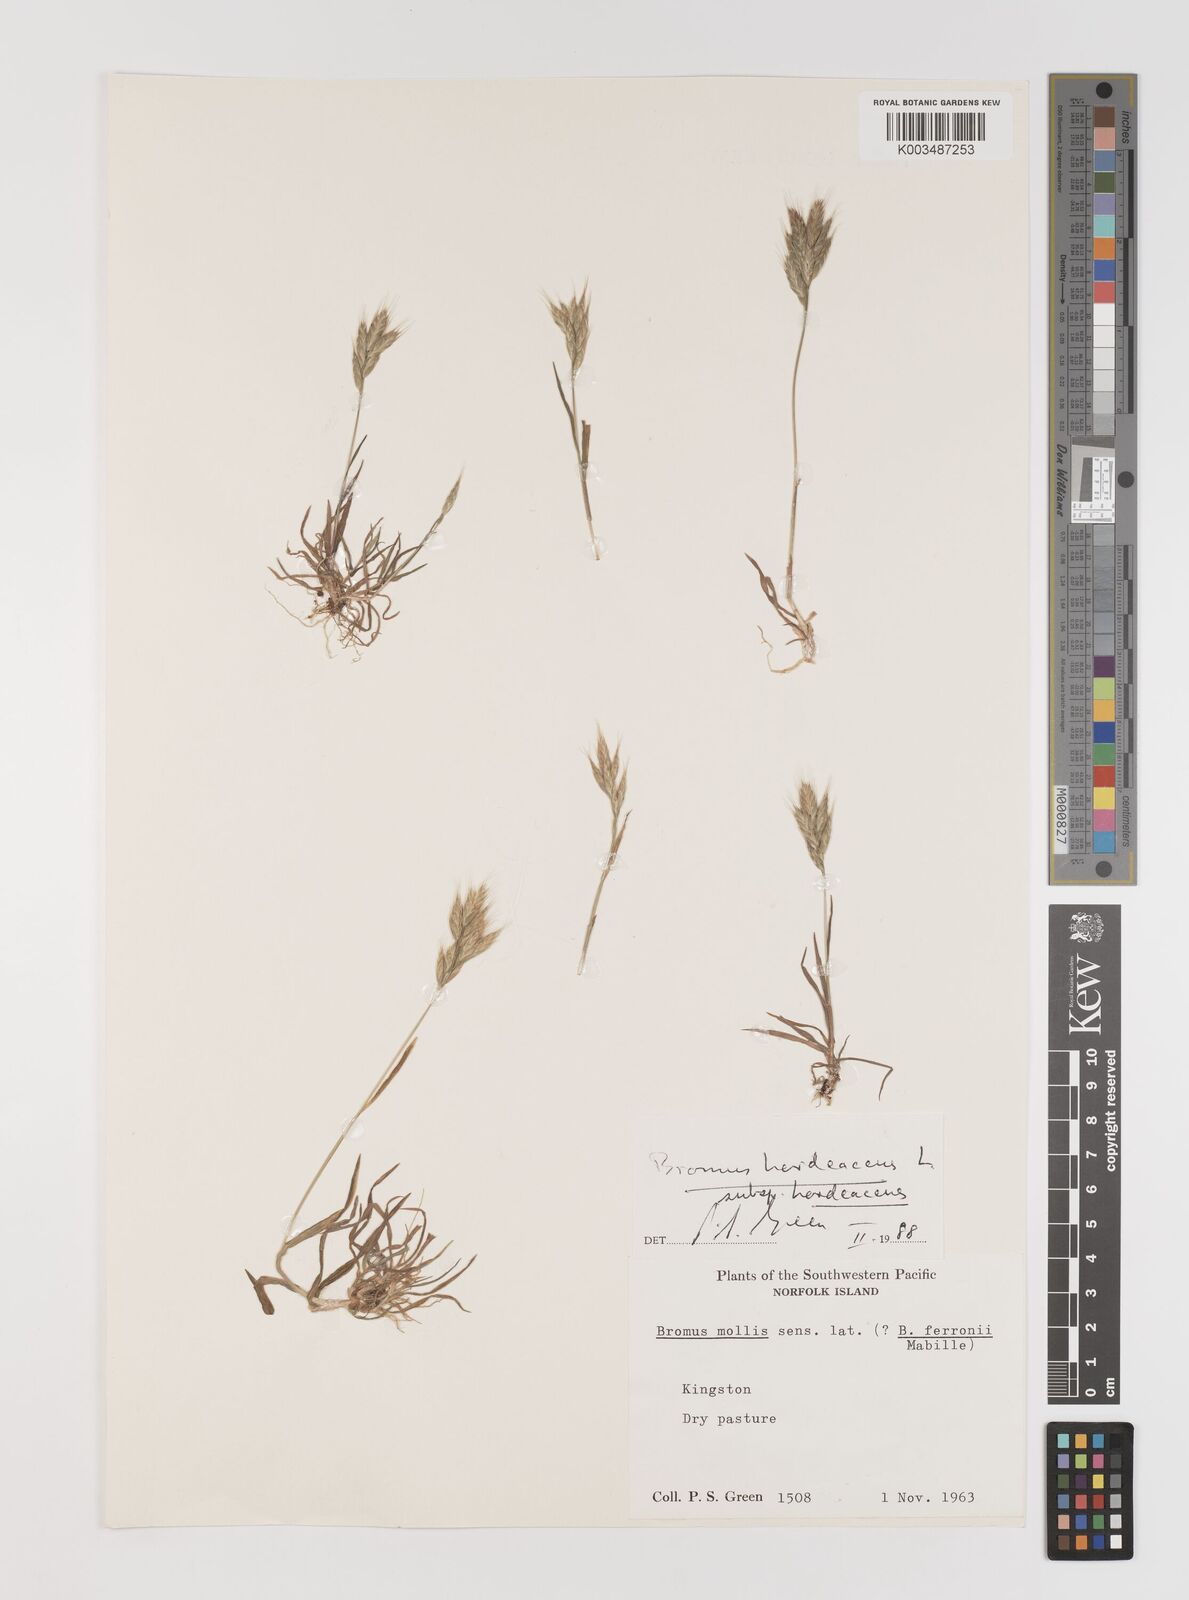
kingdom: Plantae
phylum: Tracheophyta
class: Liliopsida
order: Poales
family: Poaceae
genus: Bromus
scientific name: Bromus hordeaceus
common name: Soft brome
